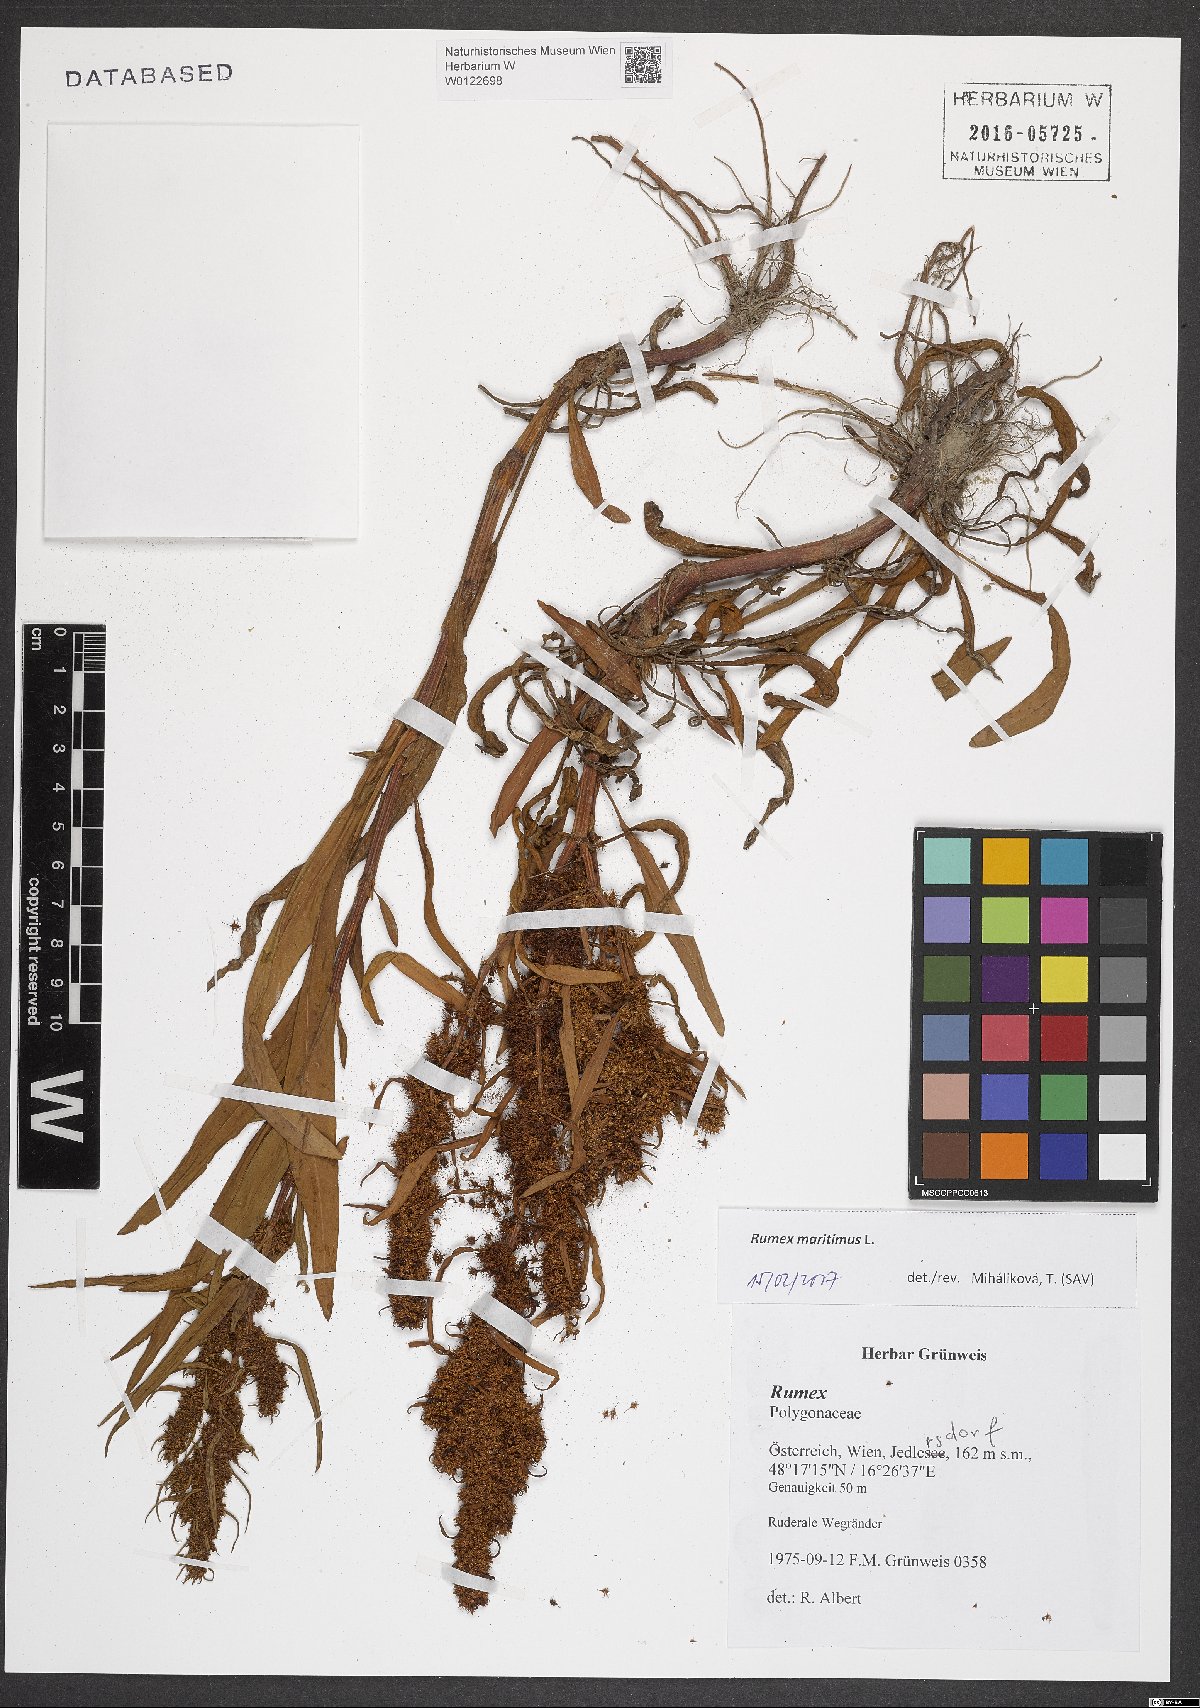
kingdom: Plantae
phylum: Tracheophyta
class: Magnoliopsida
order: Caryophyllales
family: Polygonaceae
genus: Rumex
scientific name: Rumex maritimus
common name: Golden dock
